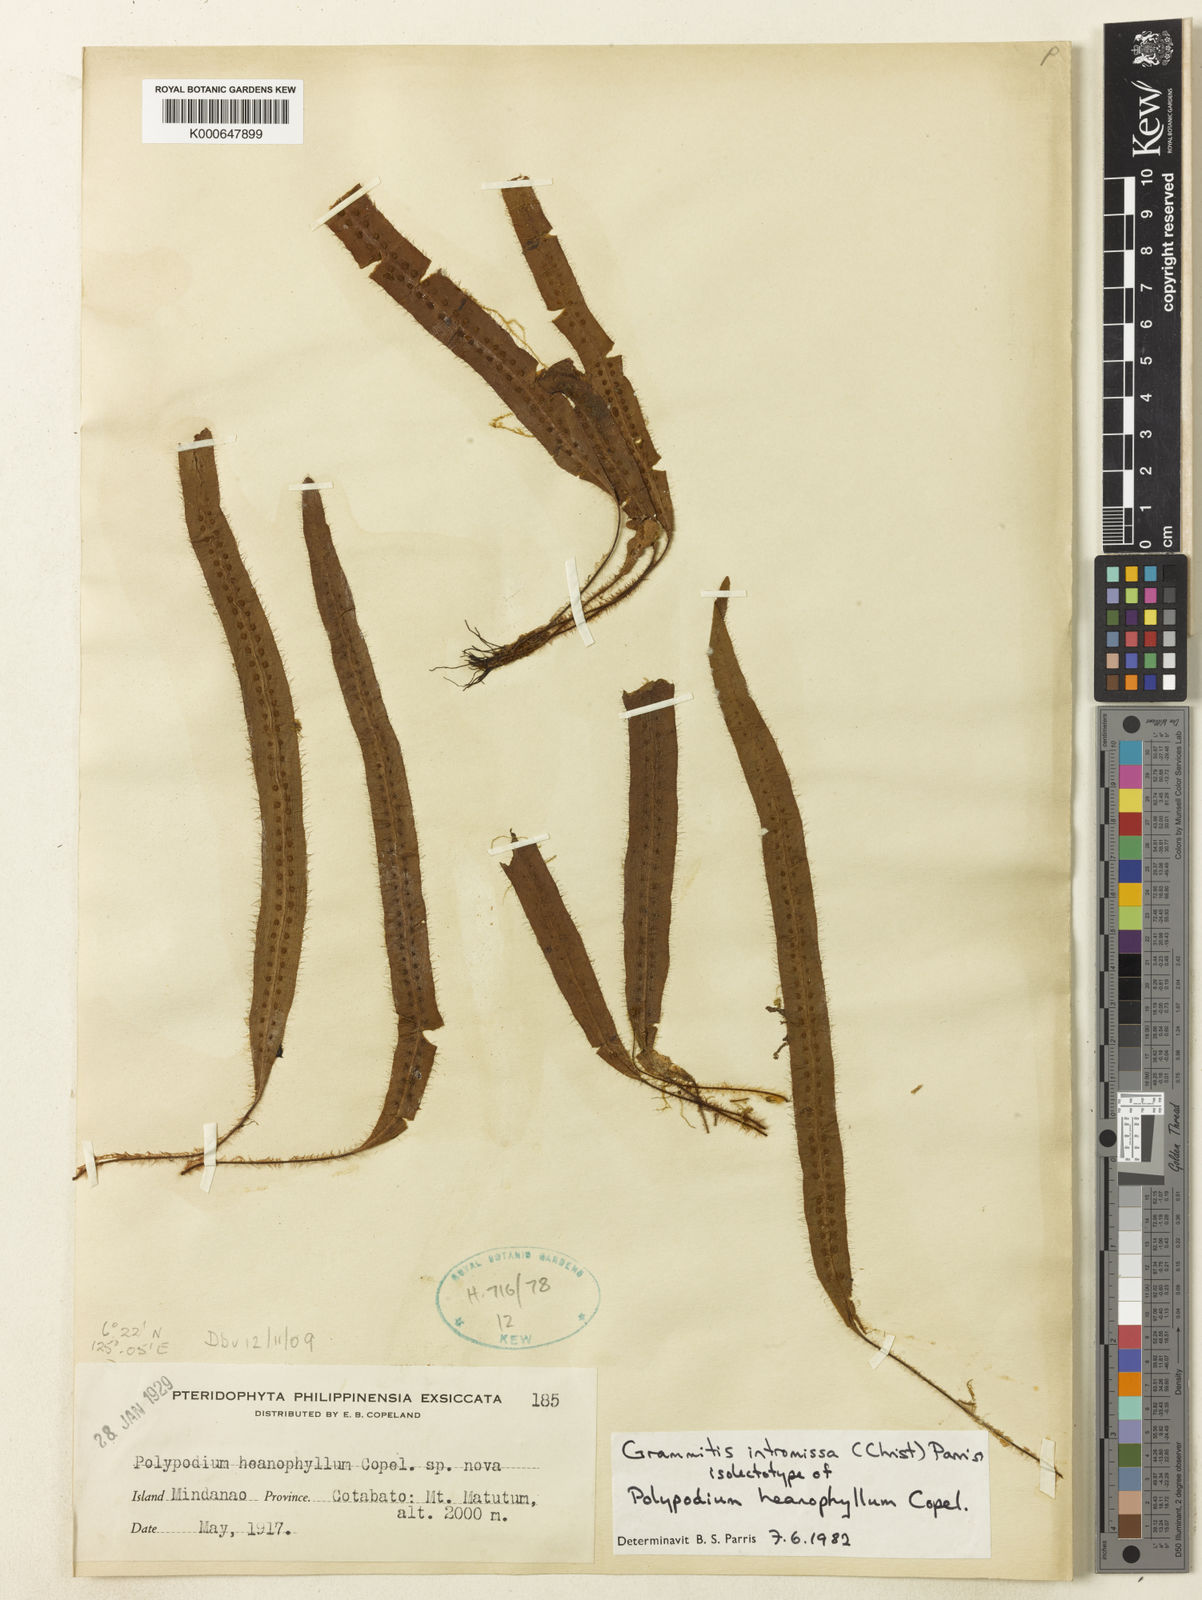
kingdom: Plantae
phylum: Tracheophyta
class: Polypodiopsida
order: Polypodiales
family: Polypodiaceae
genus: Oreogrammitis
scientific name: Oreogrammitis setigera
